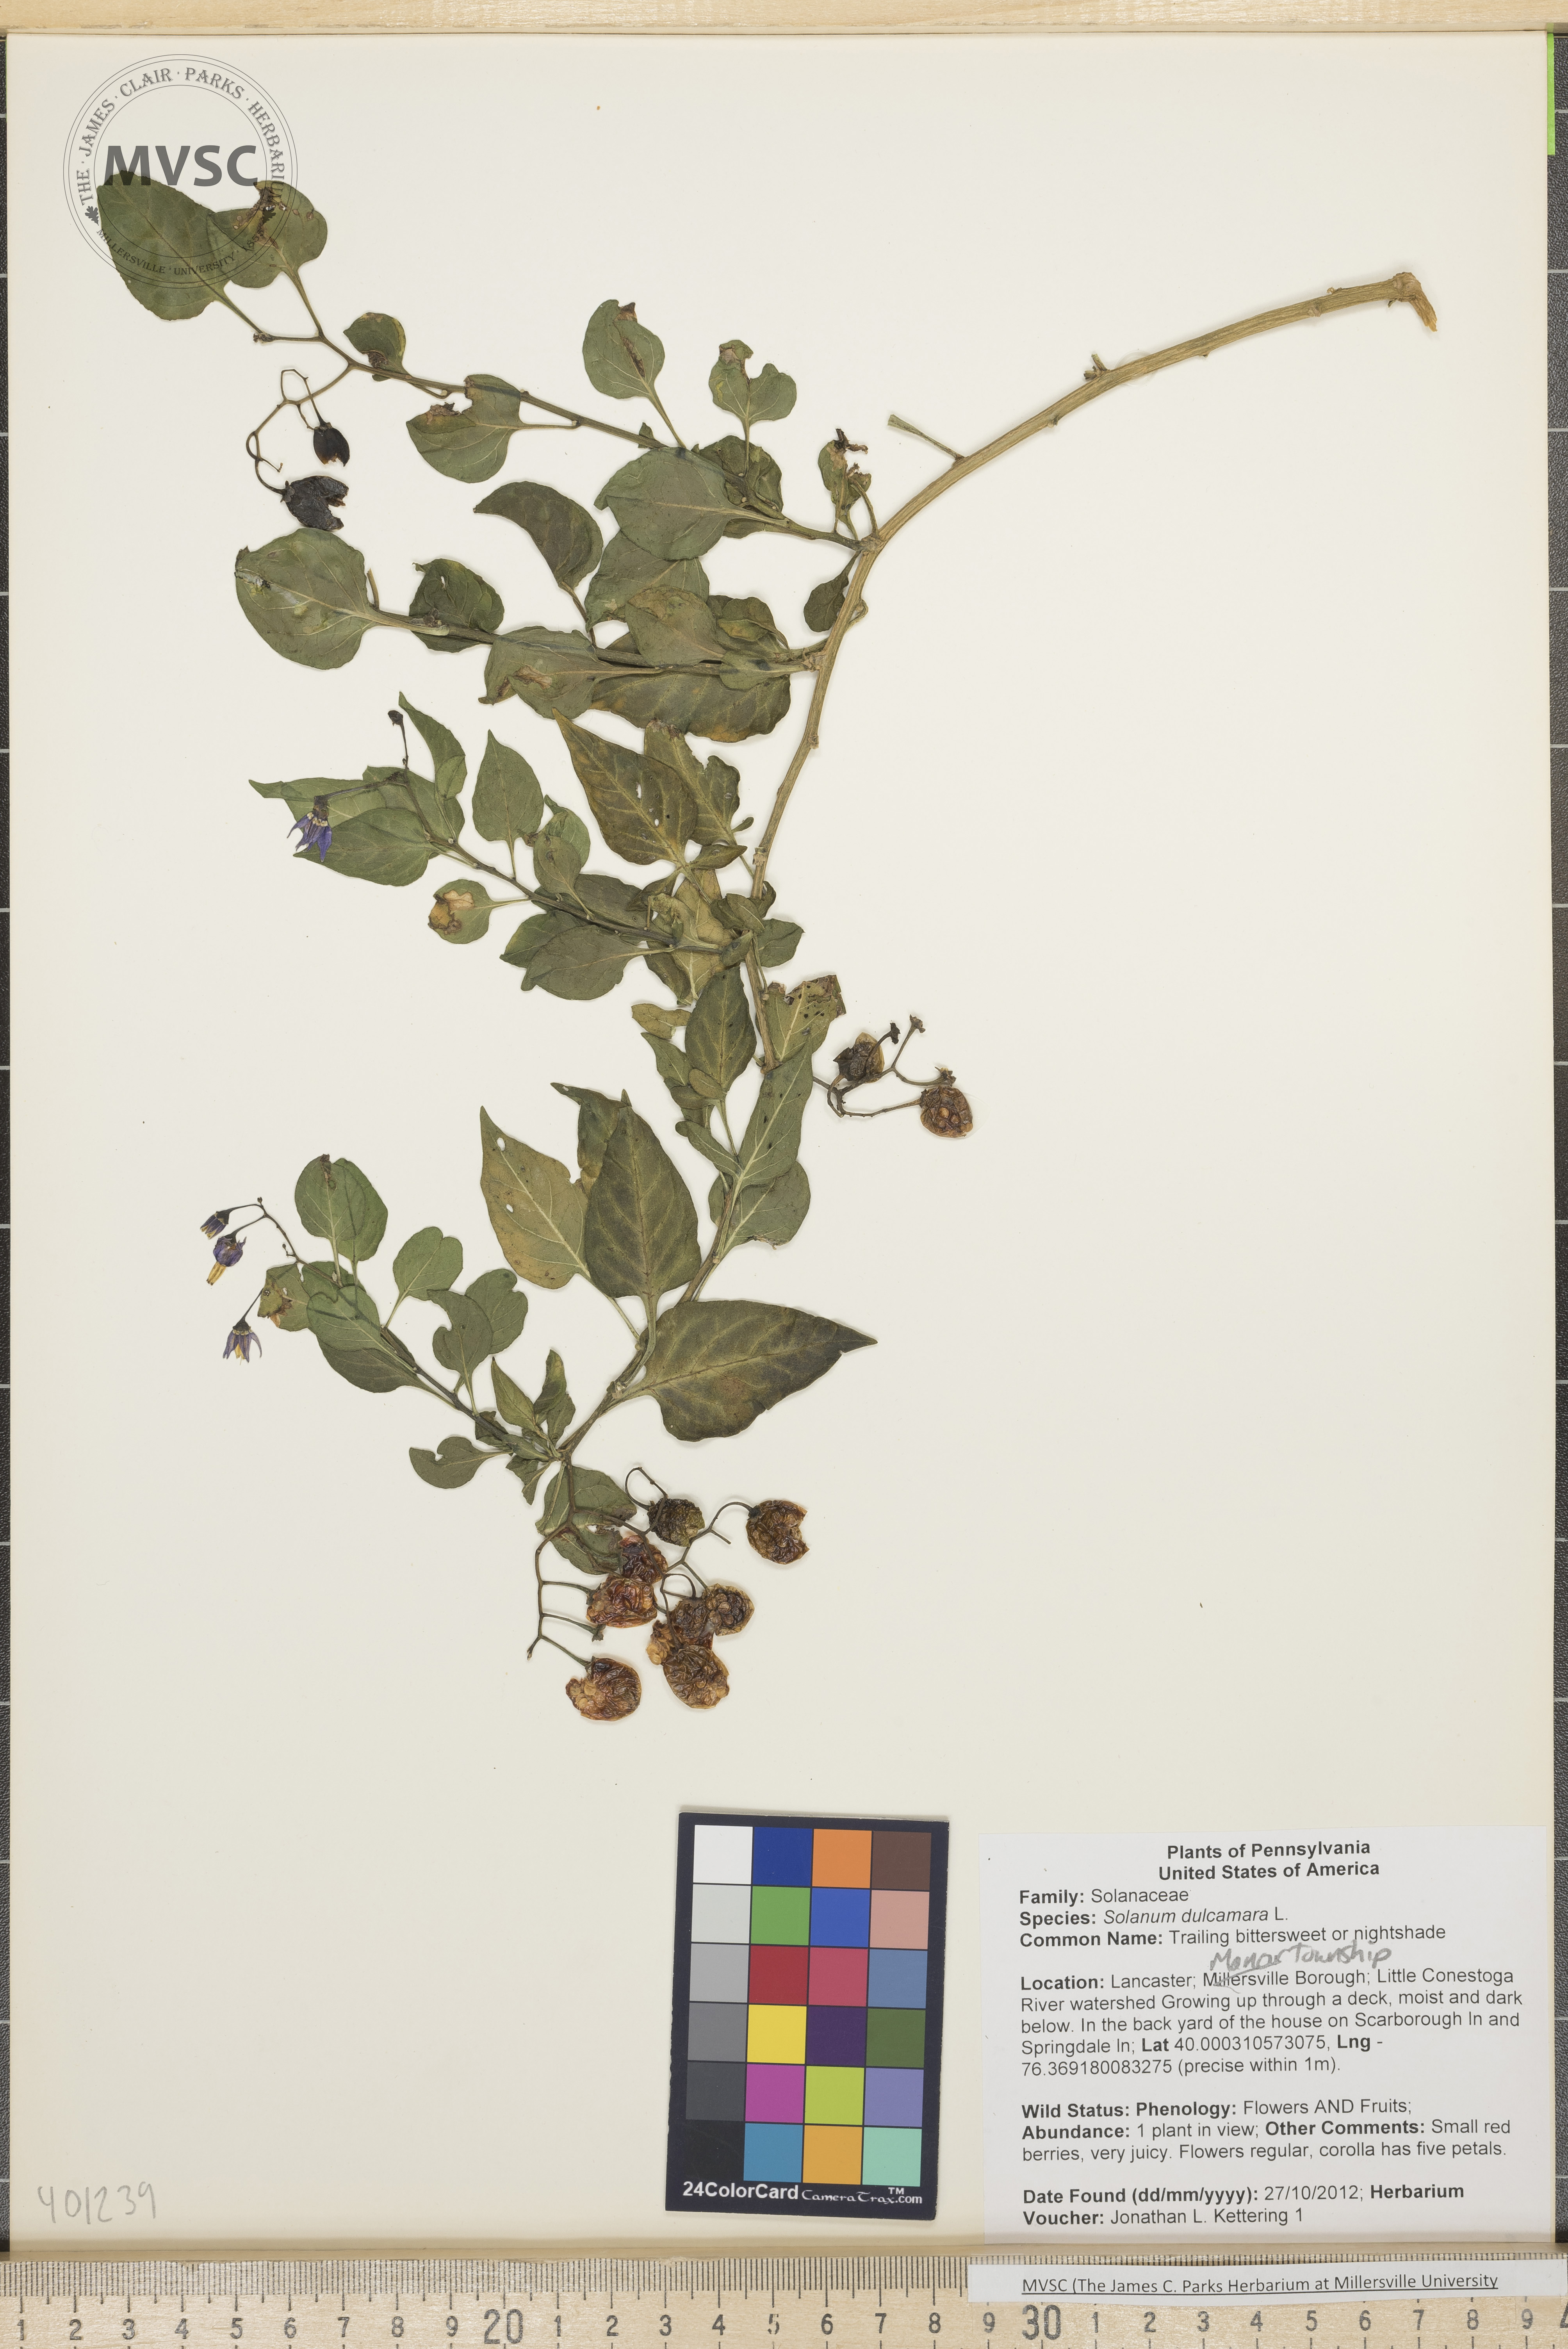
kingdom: Plantae
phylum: Tracheophyta
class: Magnoliopsida
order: Solanales
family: Solanaceae
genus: Solanum
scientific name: Solanum dulcamara
